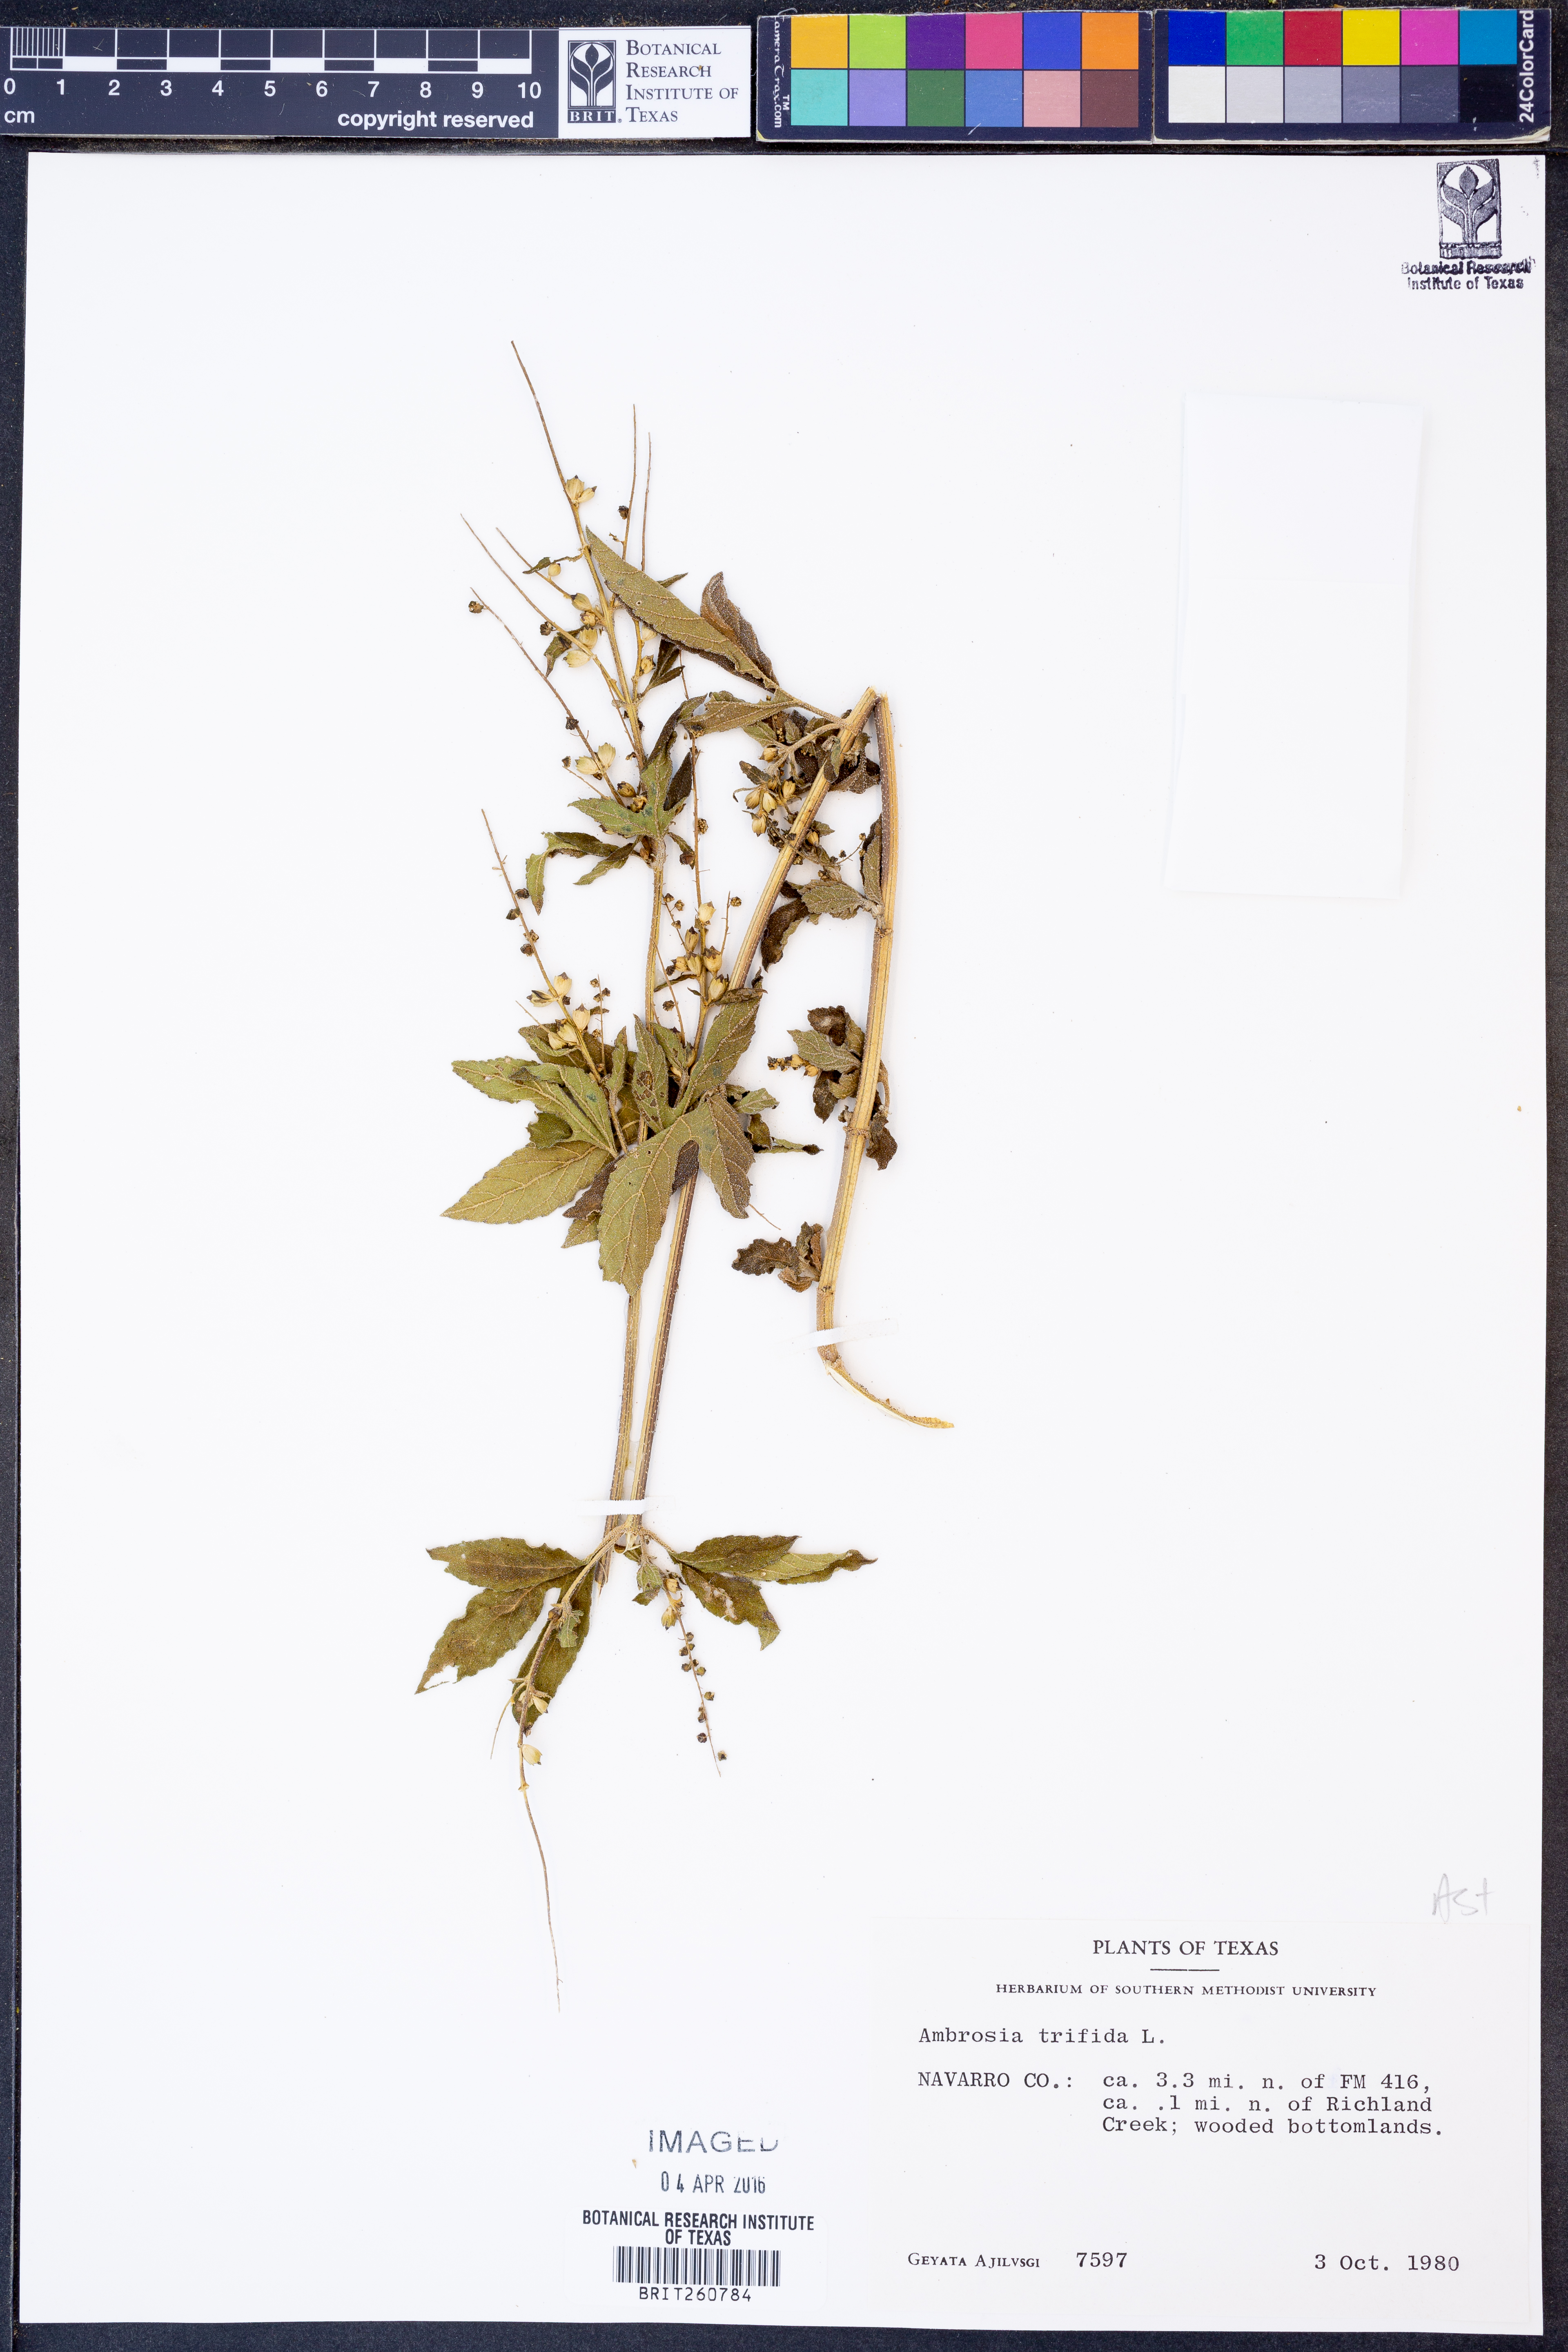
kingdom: Plantae
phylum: Tracheophyta
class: Magnoliopsida
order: Asterales
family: Asteraceae
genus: Ambrosia
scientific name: Ambrosia trifida
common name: Giant ragweed
